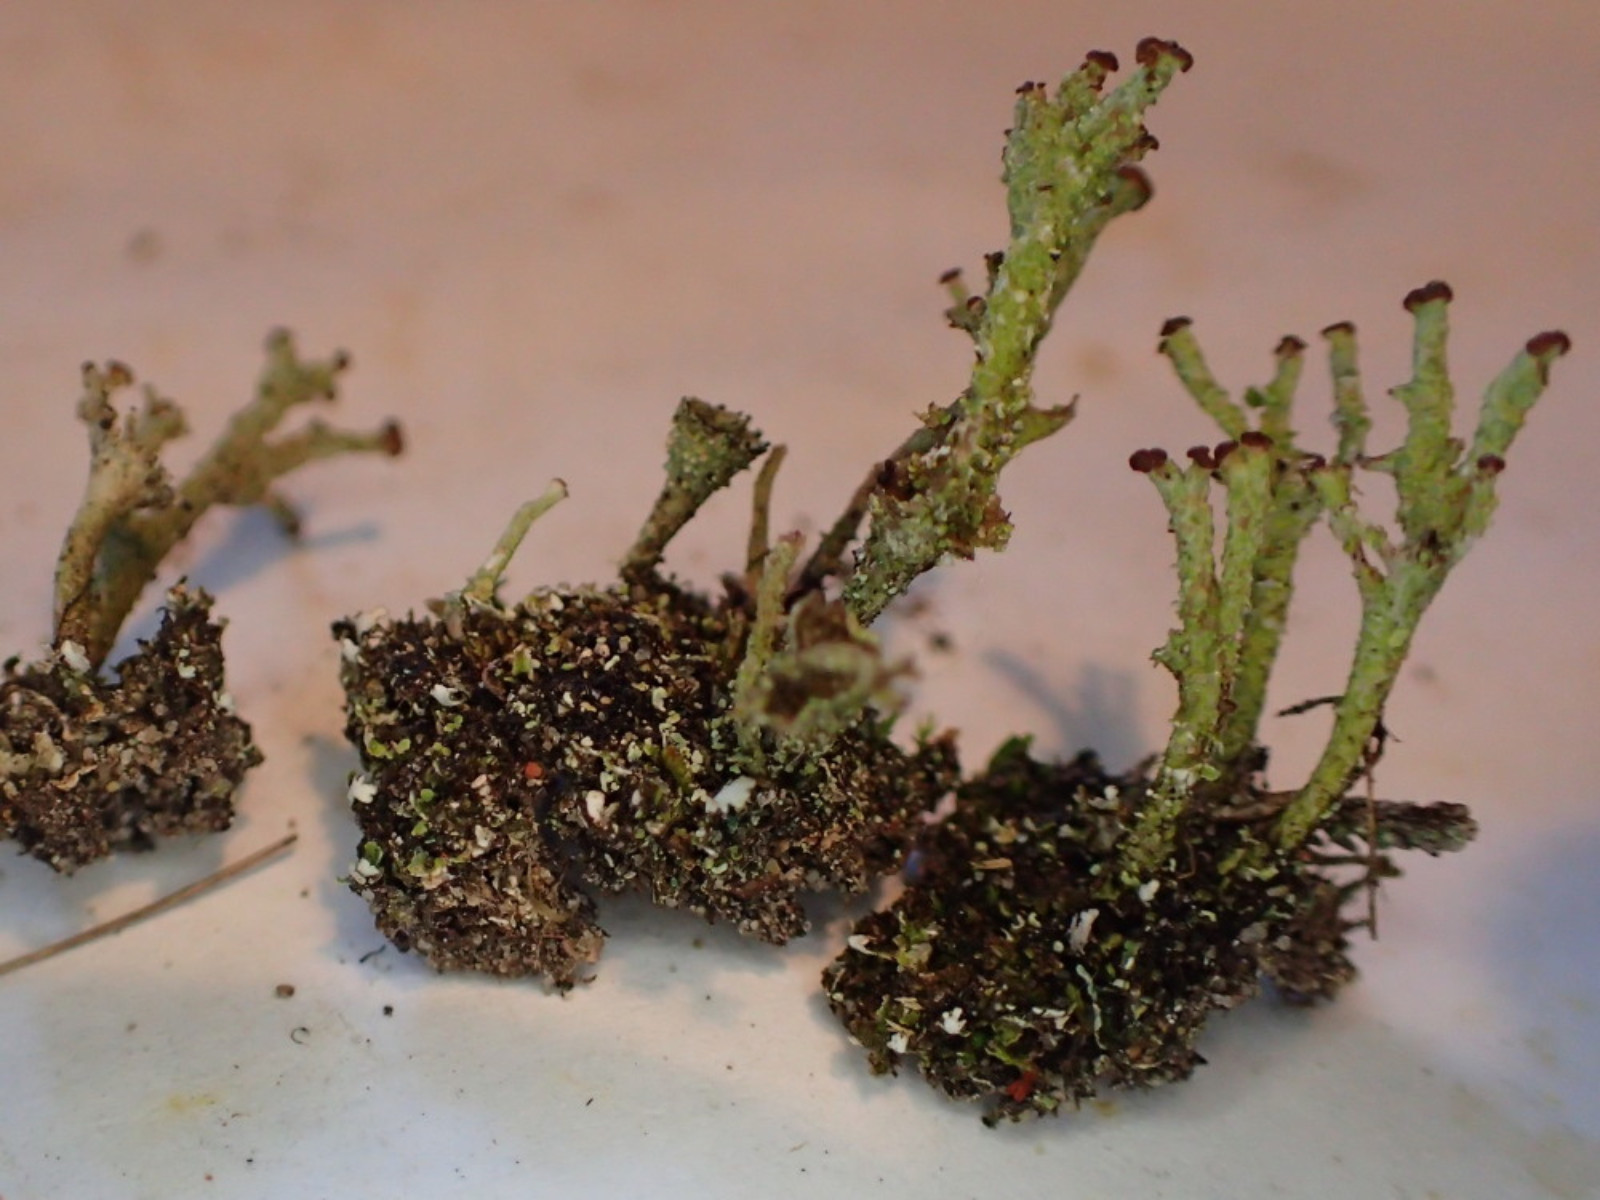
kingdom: Fungi
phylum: Ascomycota
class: Lecanoromycetes
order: Lecanorales
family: Cladoniaceae
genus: Cladonia
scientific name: Cladonia ramulosa
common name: kliddet bægerlav
